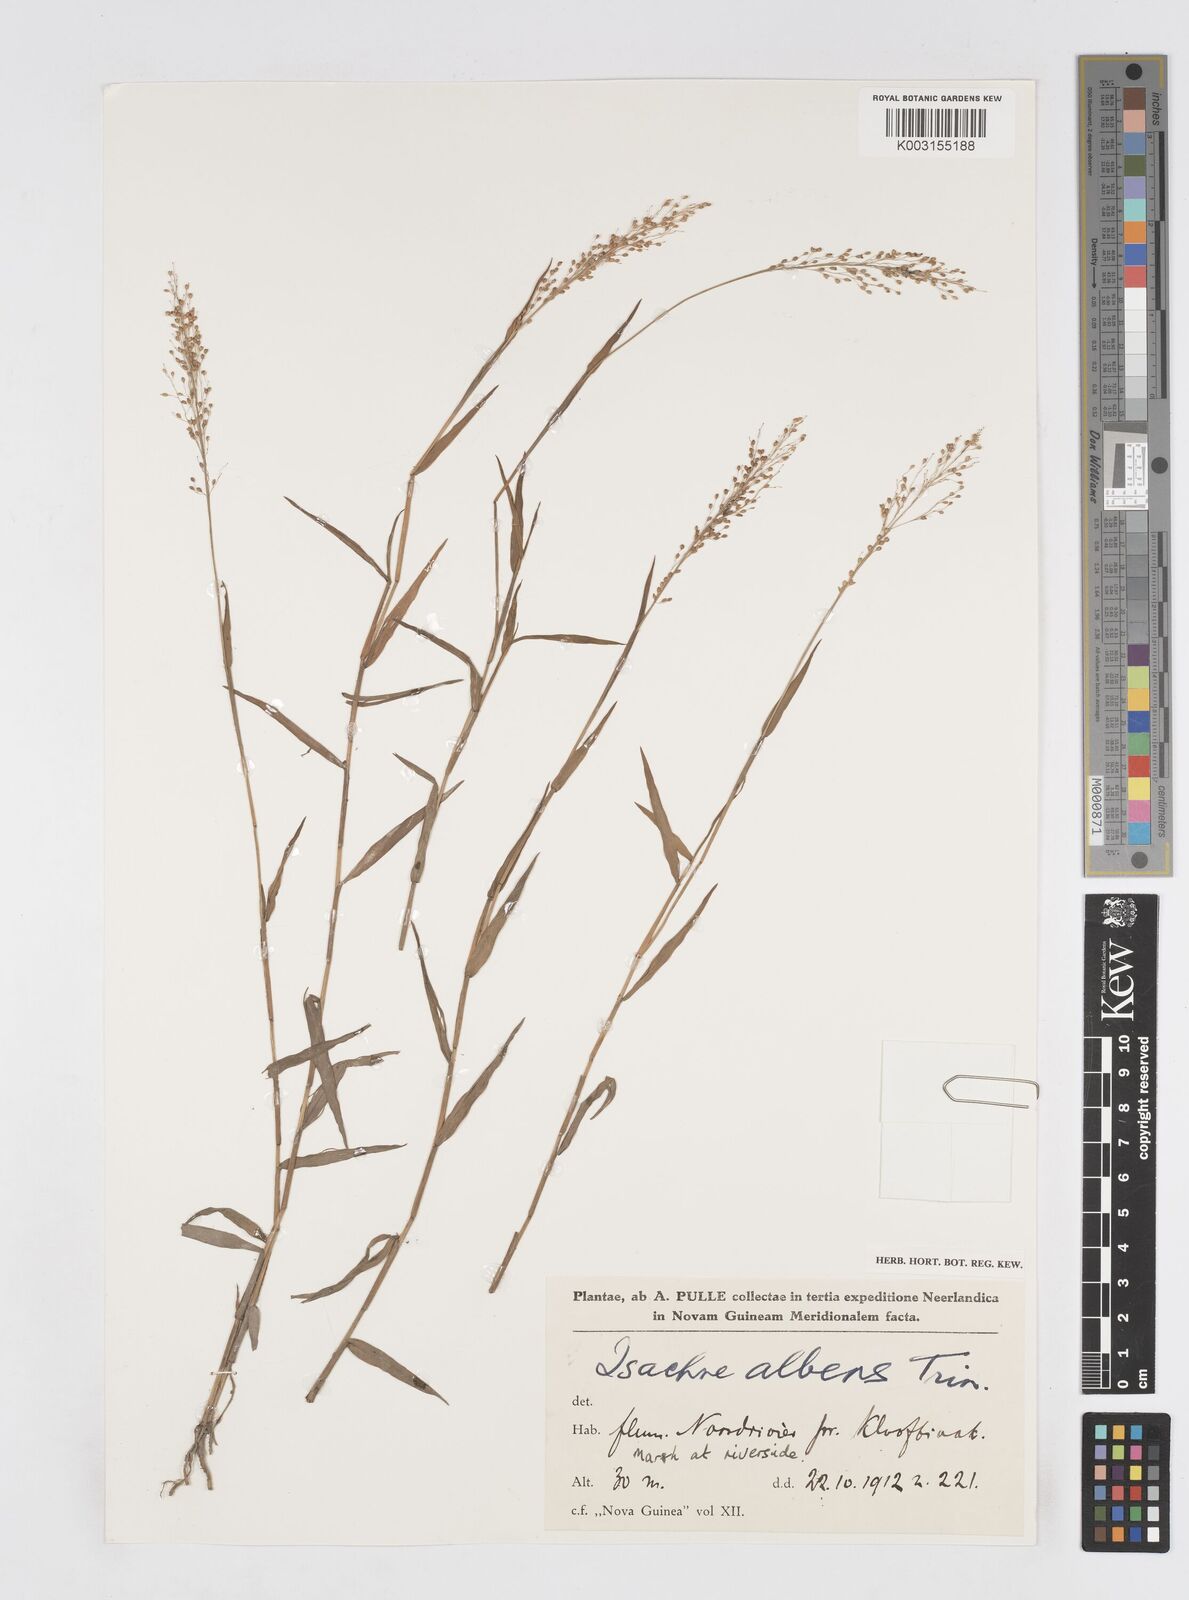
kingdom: Plantae
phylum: Tracheophyta
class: Liliopsida
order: Poales
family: Poaceae
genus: Isachne
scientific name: Isachne albens
